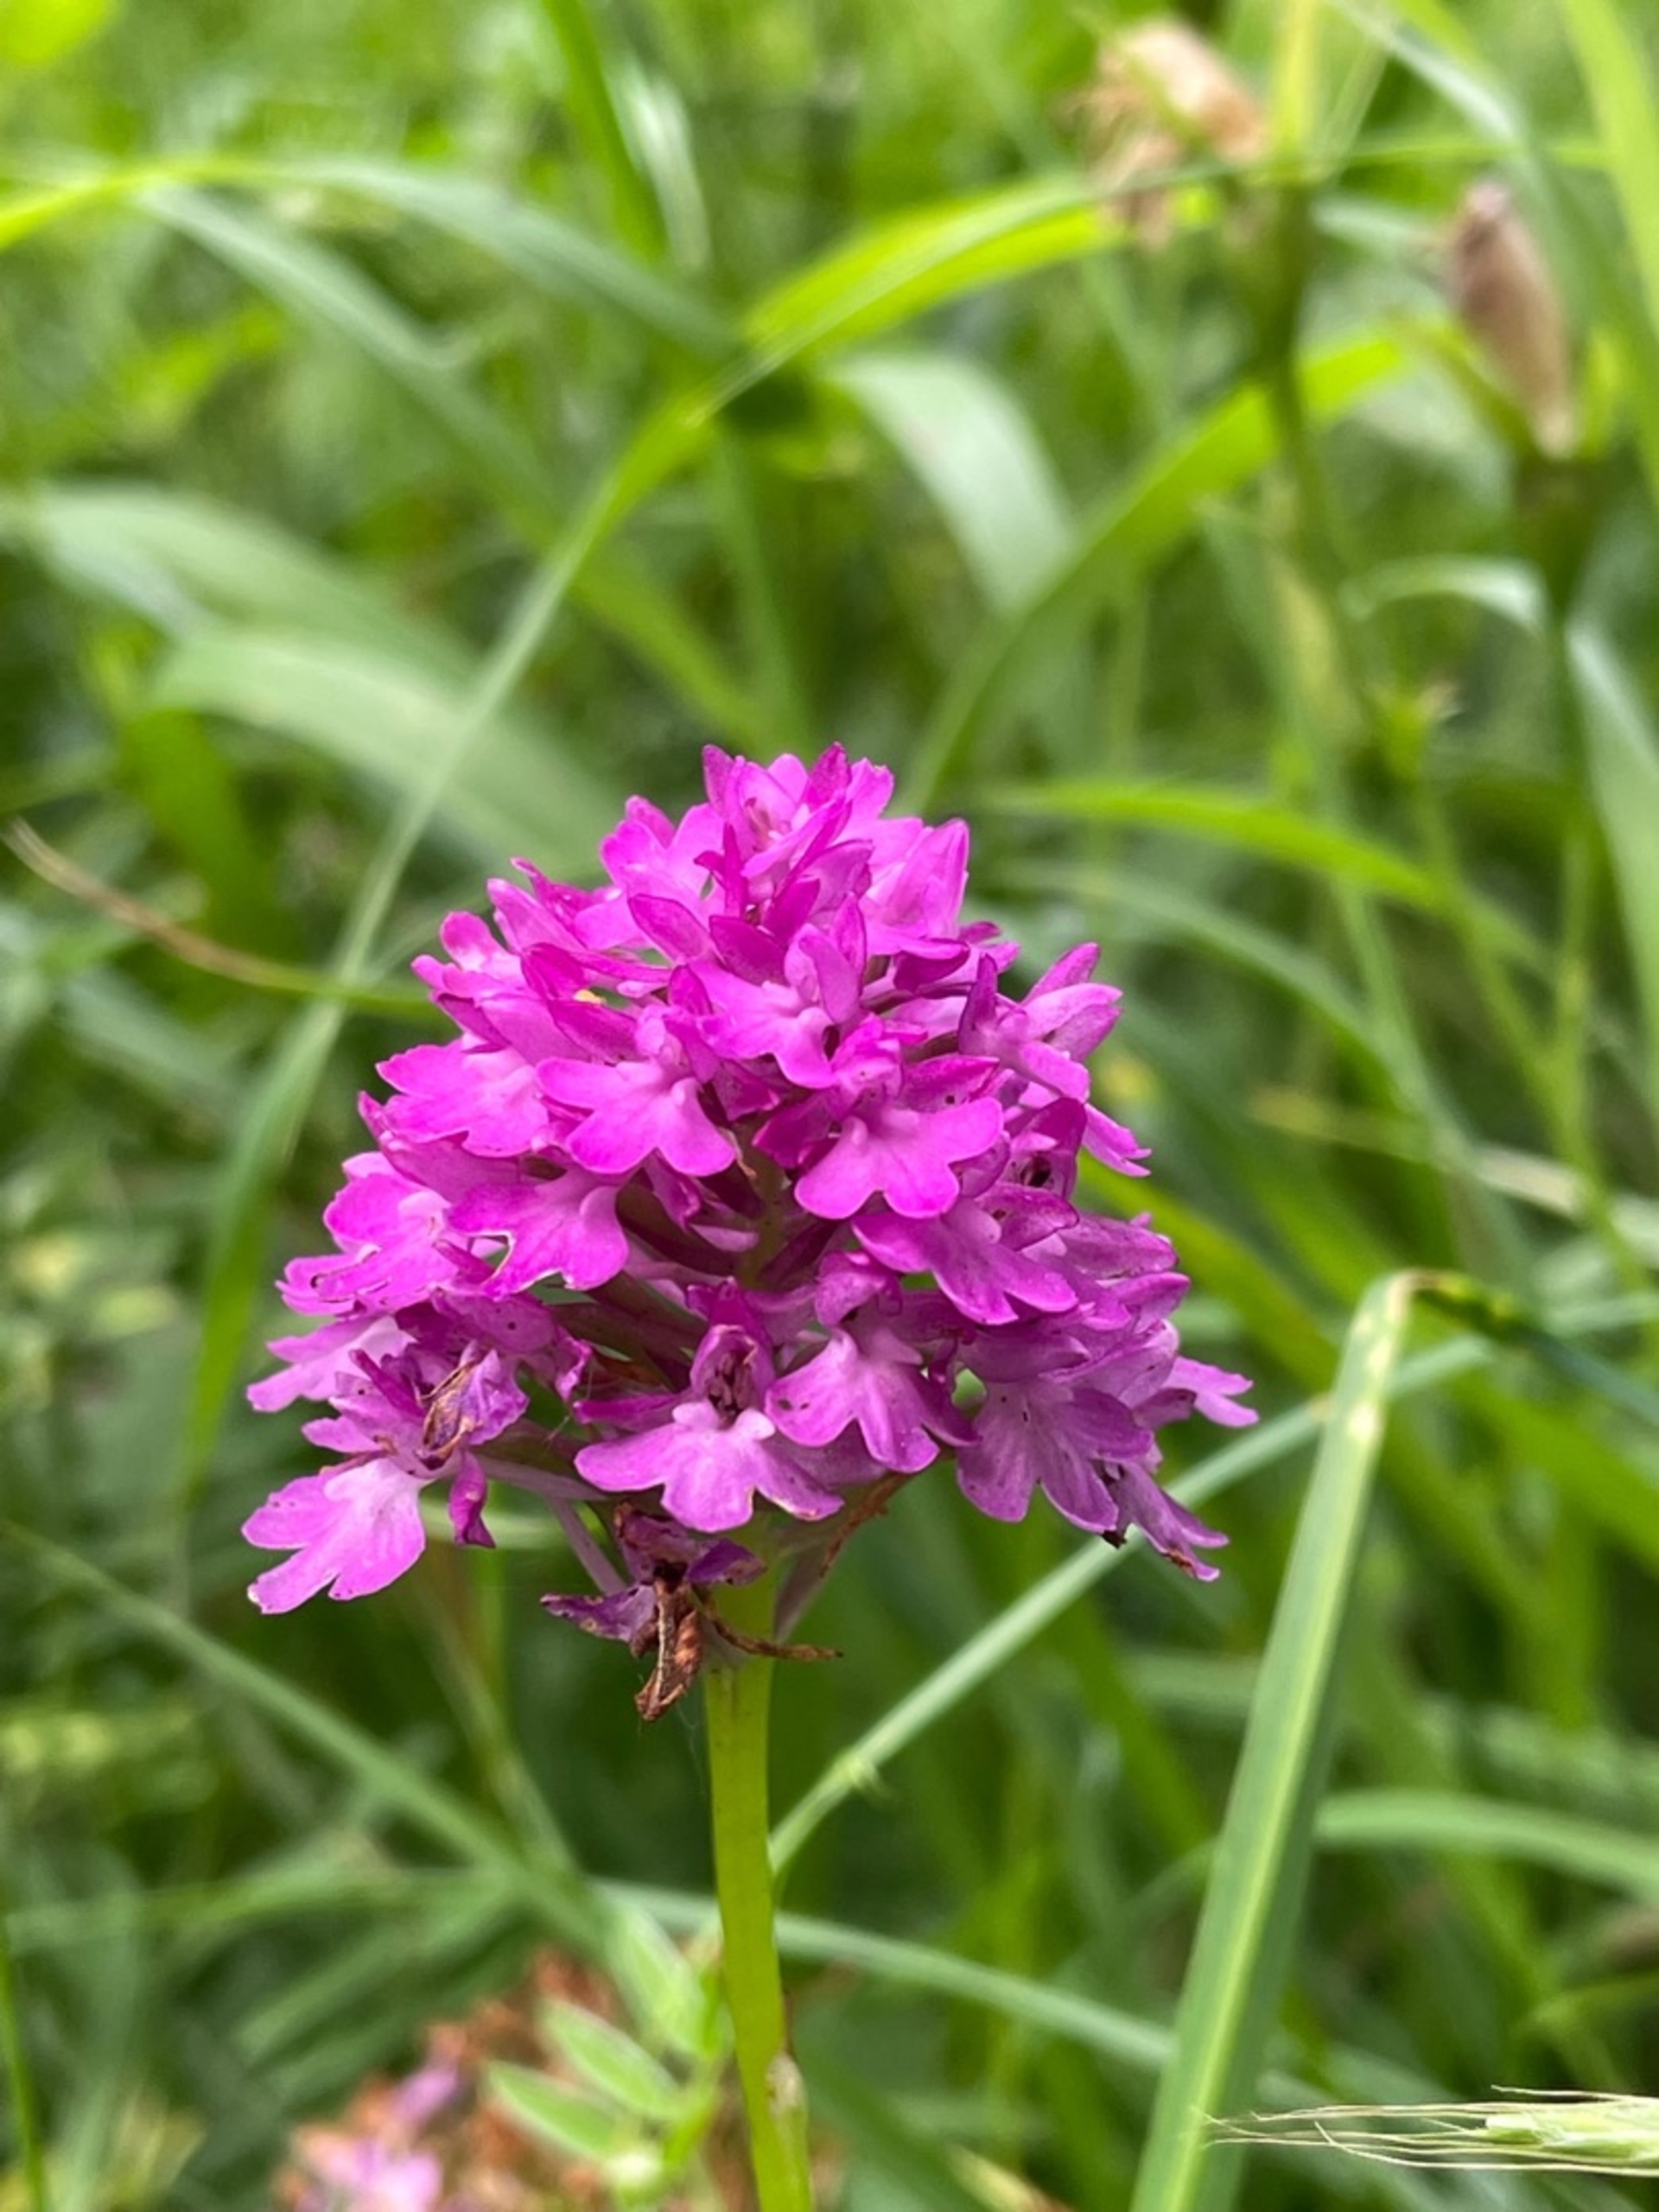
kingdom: Plantae
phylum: Tracheophyta
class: Liliopsida
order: Asparagales
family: Orchidaceae
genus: Anacamptis
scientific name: Anacamptis pyramidalis
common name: Horndrager
